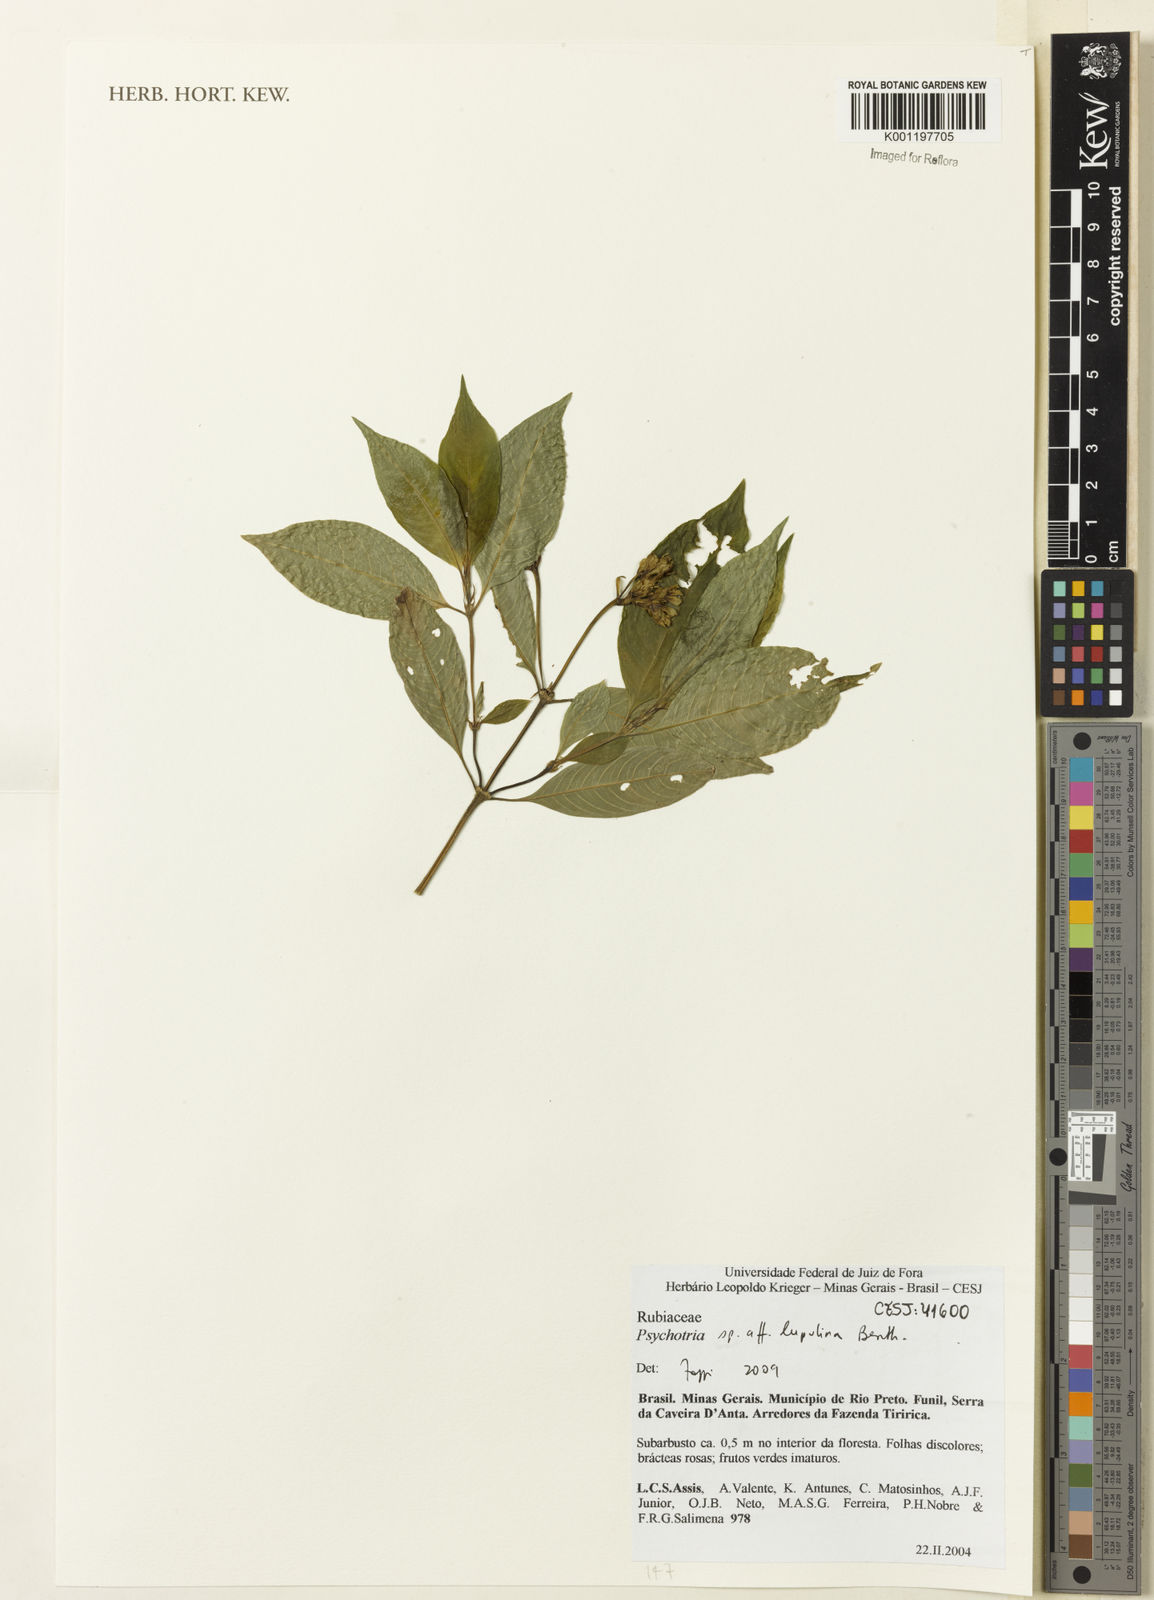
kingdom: Plantae
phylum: Tracheophyta
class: Magnoliopsida
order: Gentianales
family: Rubiaceae
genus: Palicourea
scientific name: Palicourea justiciifolia
